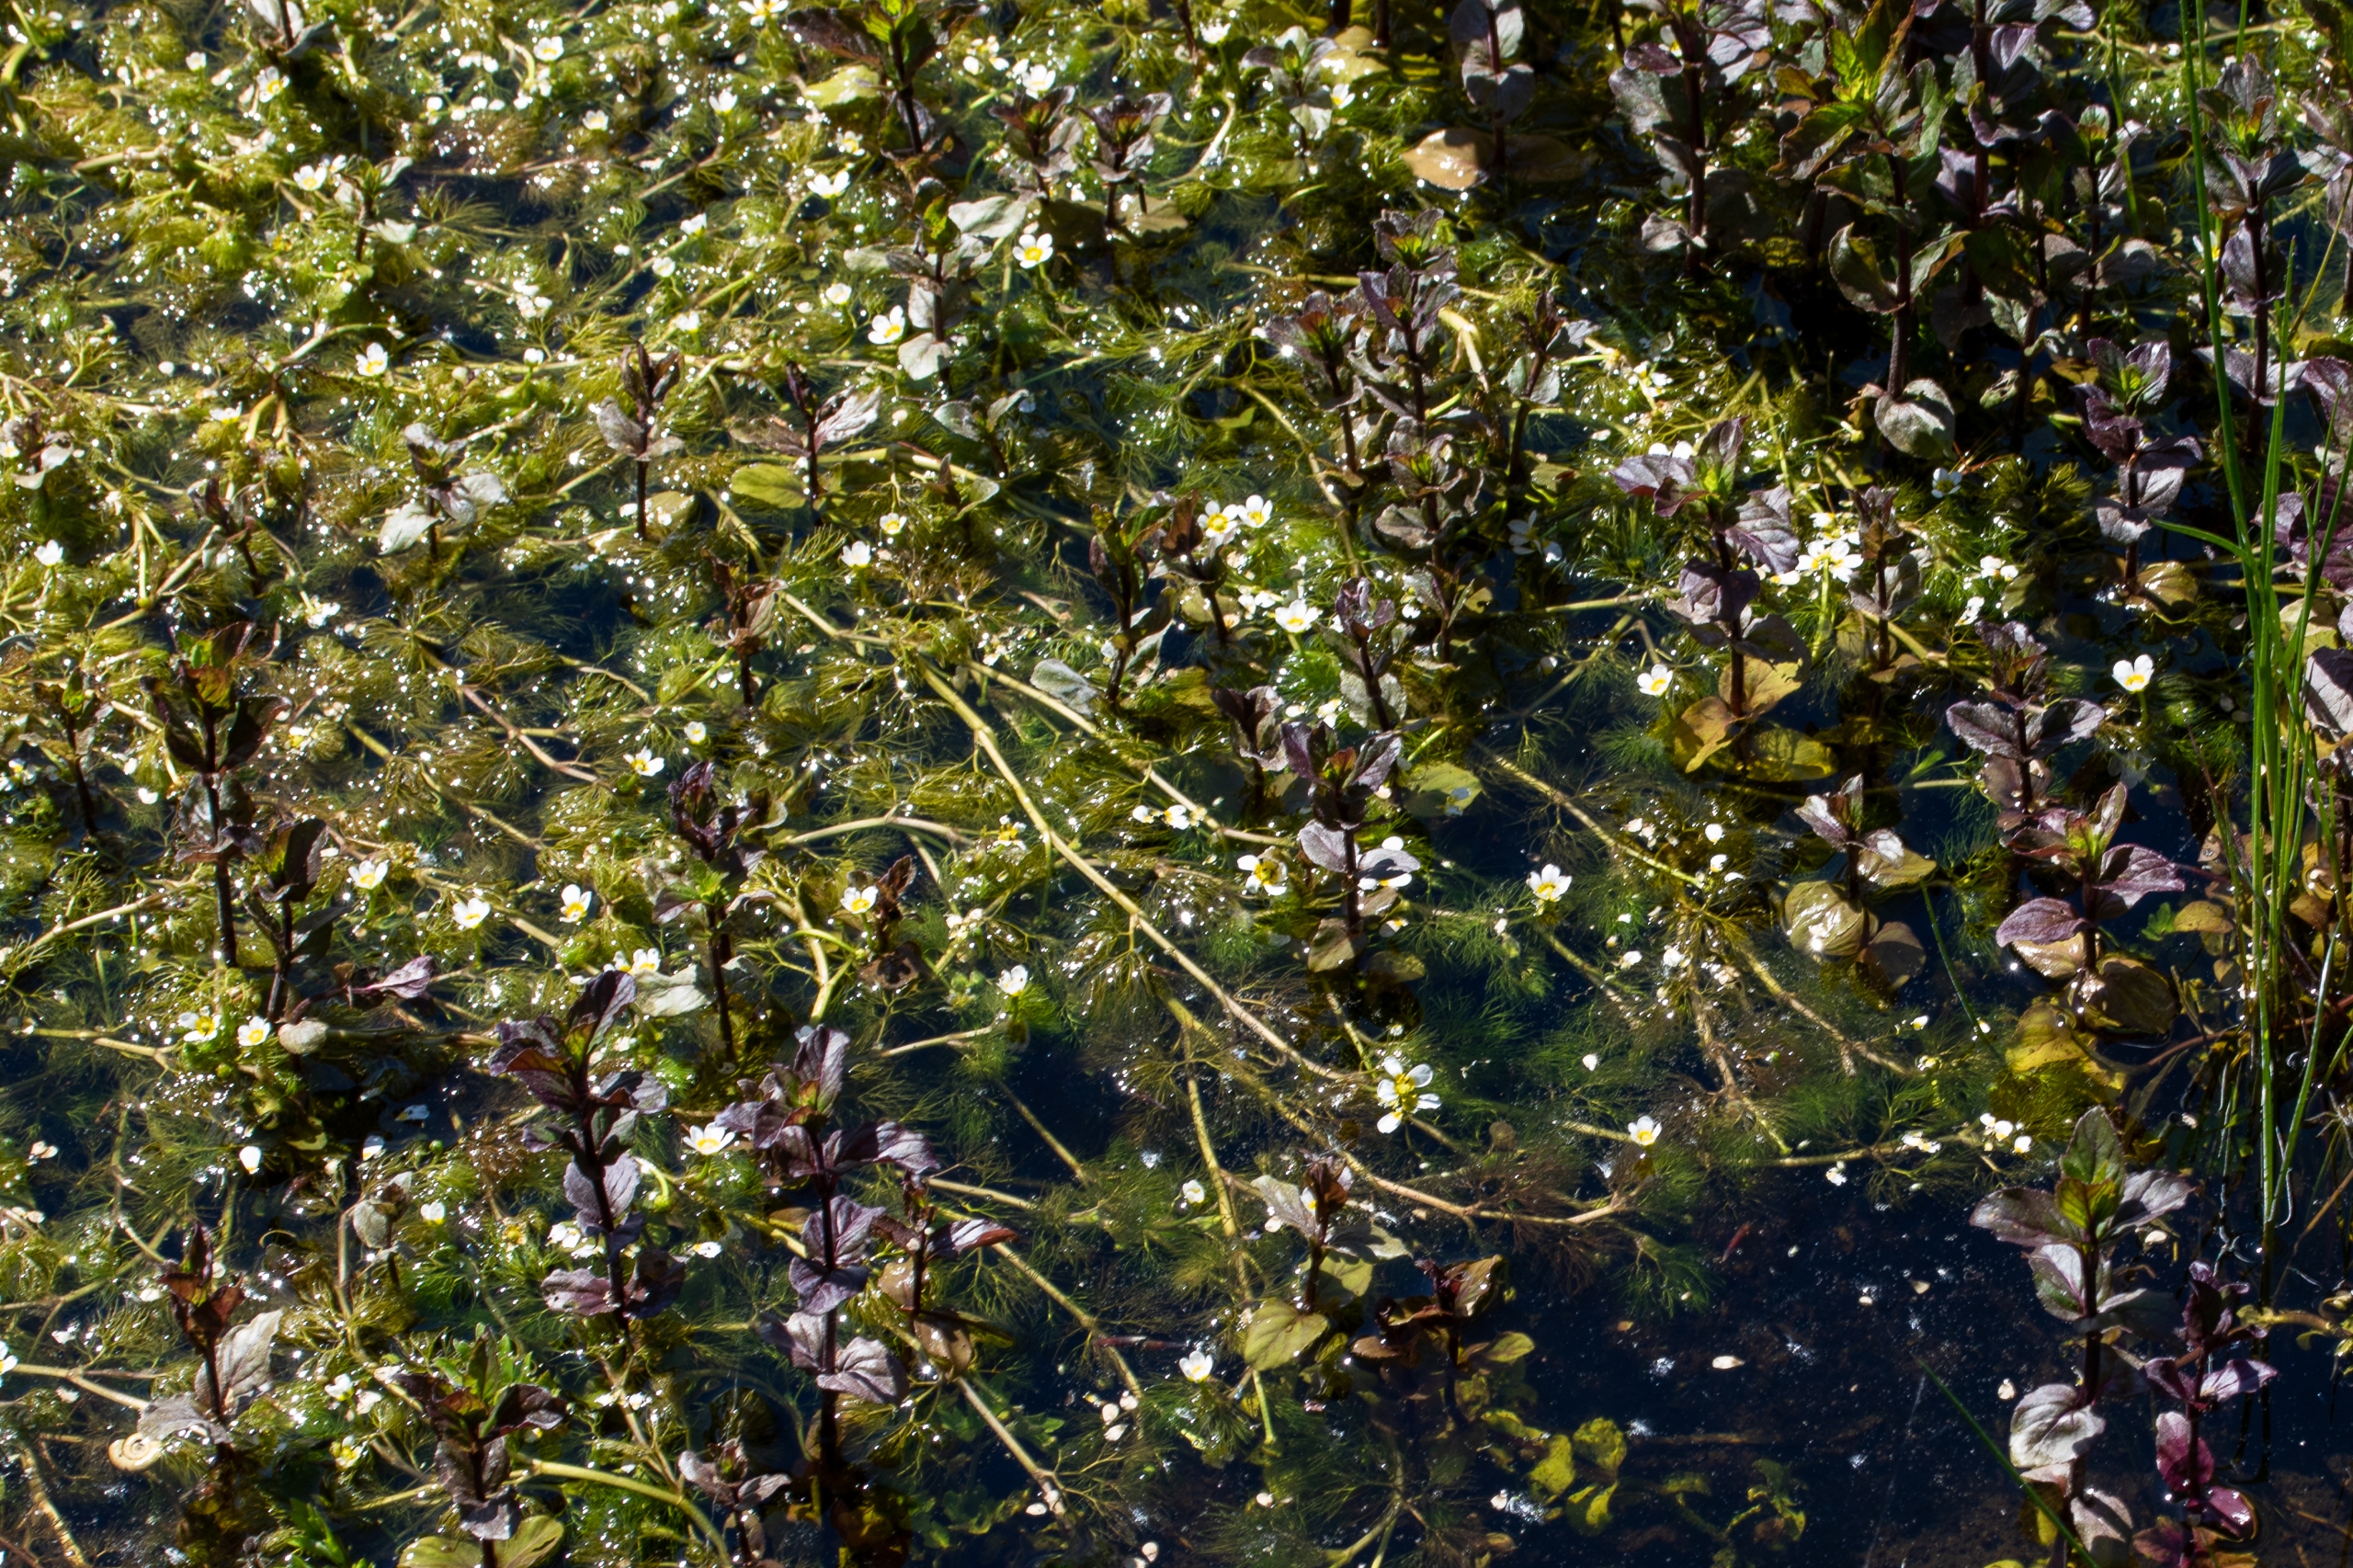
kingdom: Plantae
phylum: Tracheophyta
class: Magnoliopsida
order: Ranunculales
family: Ranunculaceae
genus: Ranunculus
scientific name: Ranunculus trichophyllus
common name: Hårfliget vandranunkel
